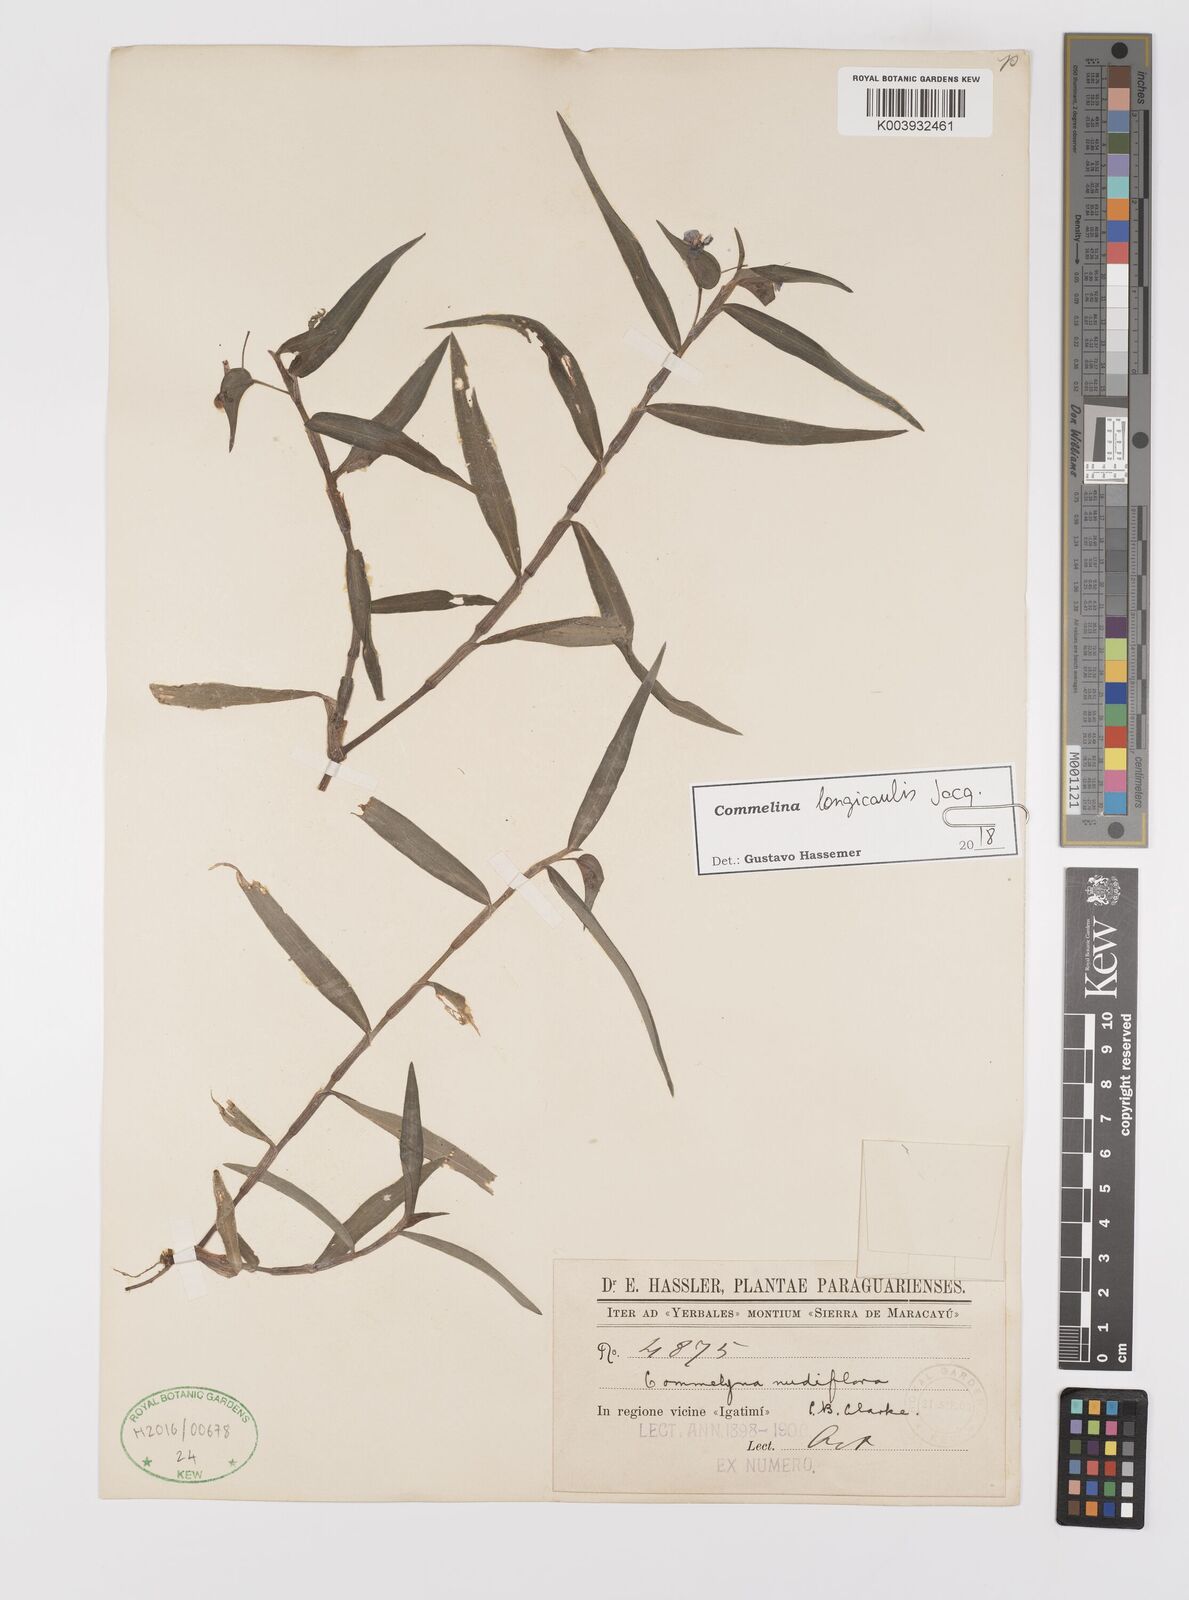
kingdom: Plantae
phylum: Tracheophyta
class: Liliopsida
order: Commelinales
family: Commelinaceae
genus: Commelina
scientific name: Commelina diffusa
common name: Climbing dayflower
